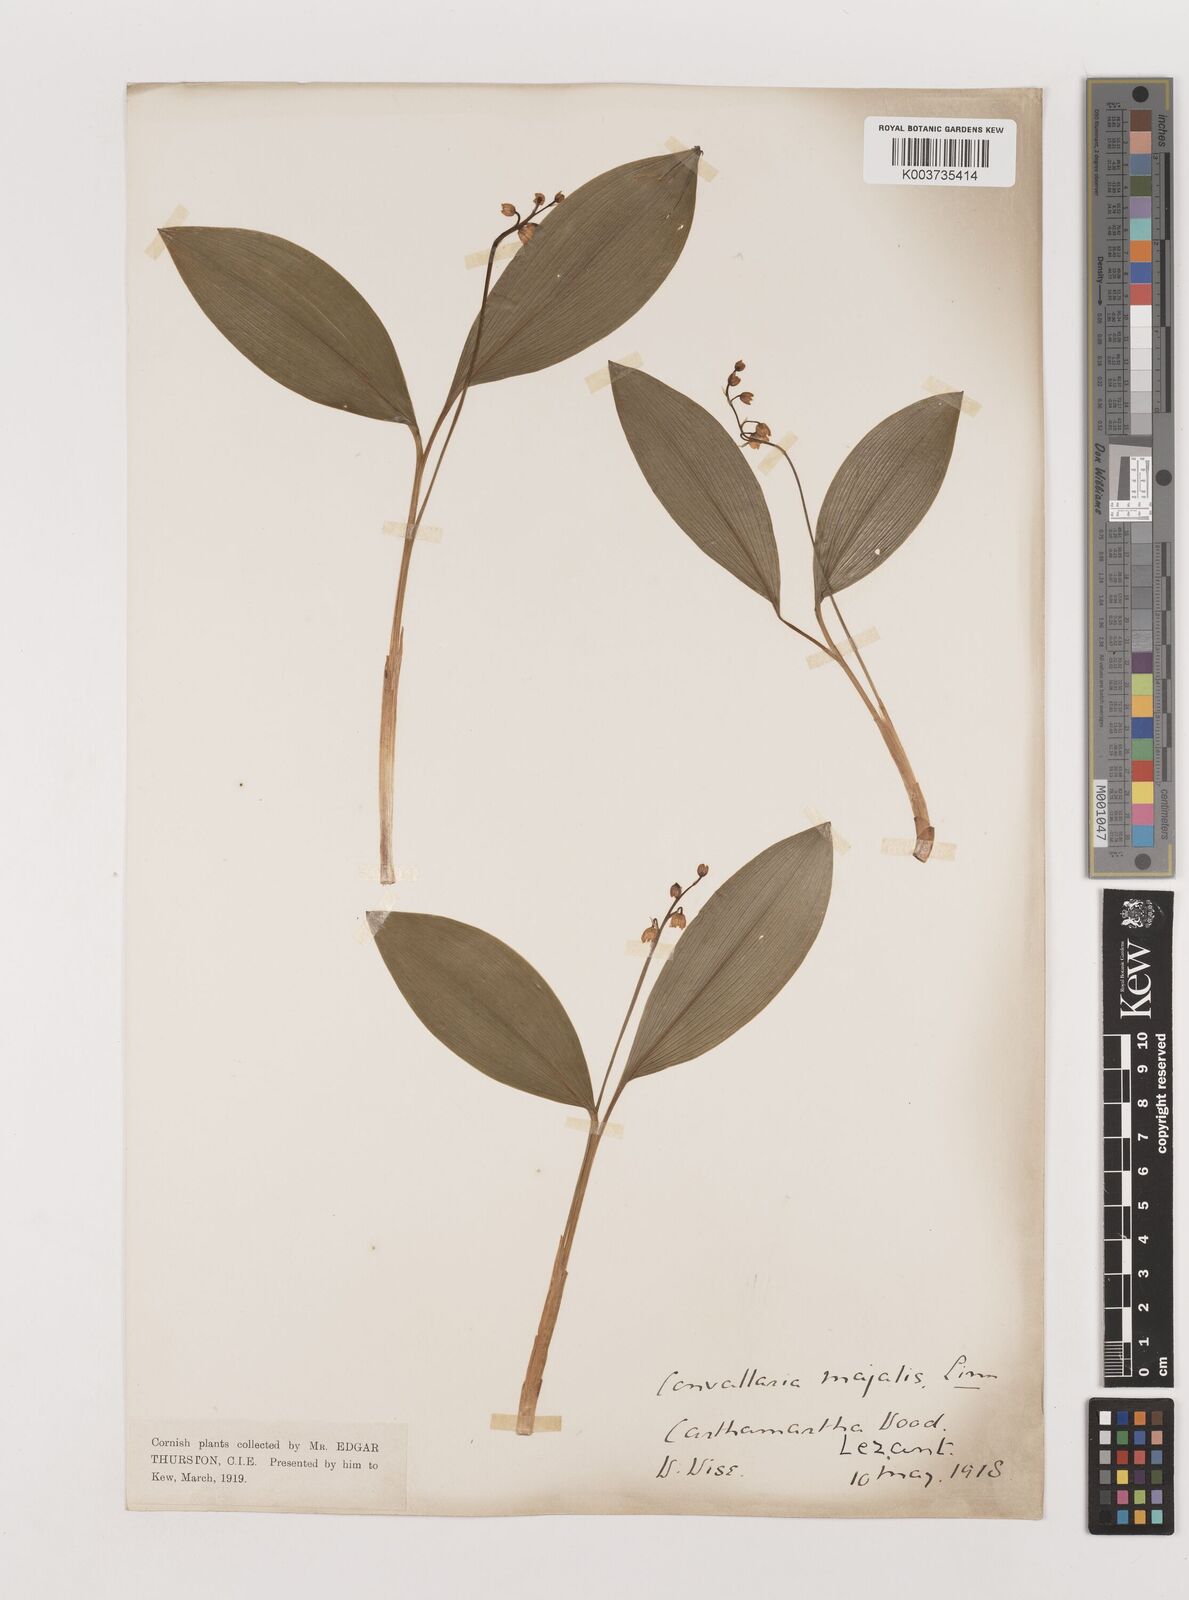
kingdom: Plantae
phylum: Tracheophyta
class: Liliopsida
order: Asparagales
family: Asparagaceae
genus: Convallaria
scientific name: Convallaria majalis
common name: Lily-of-the-valley
